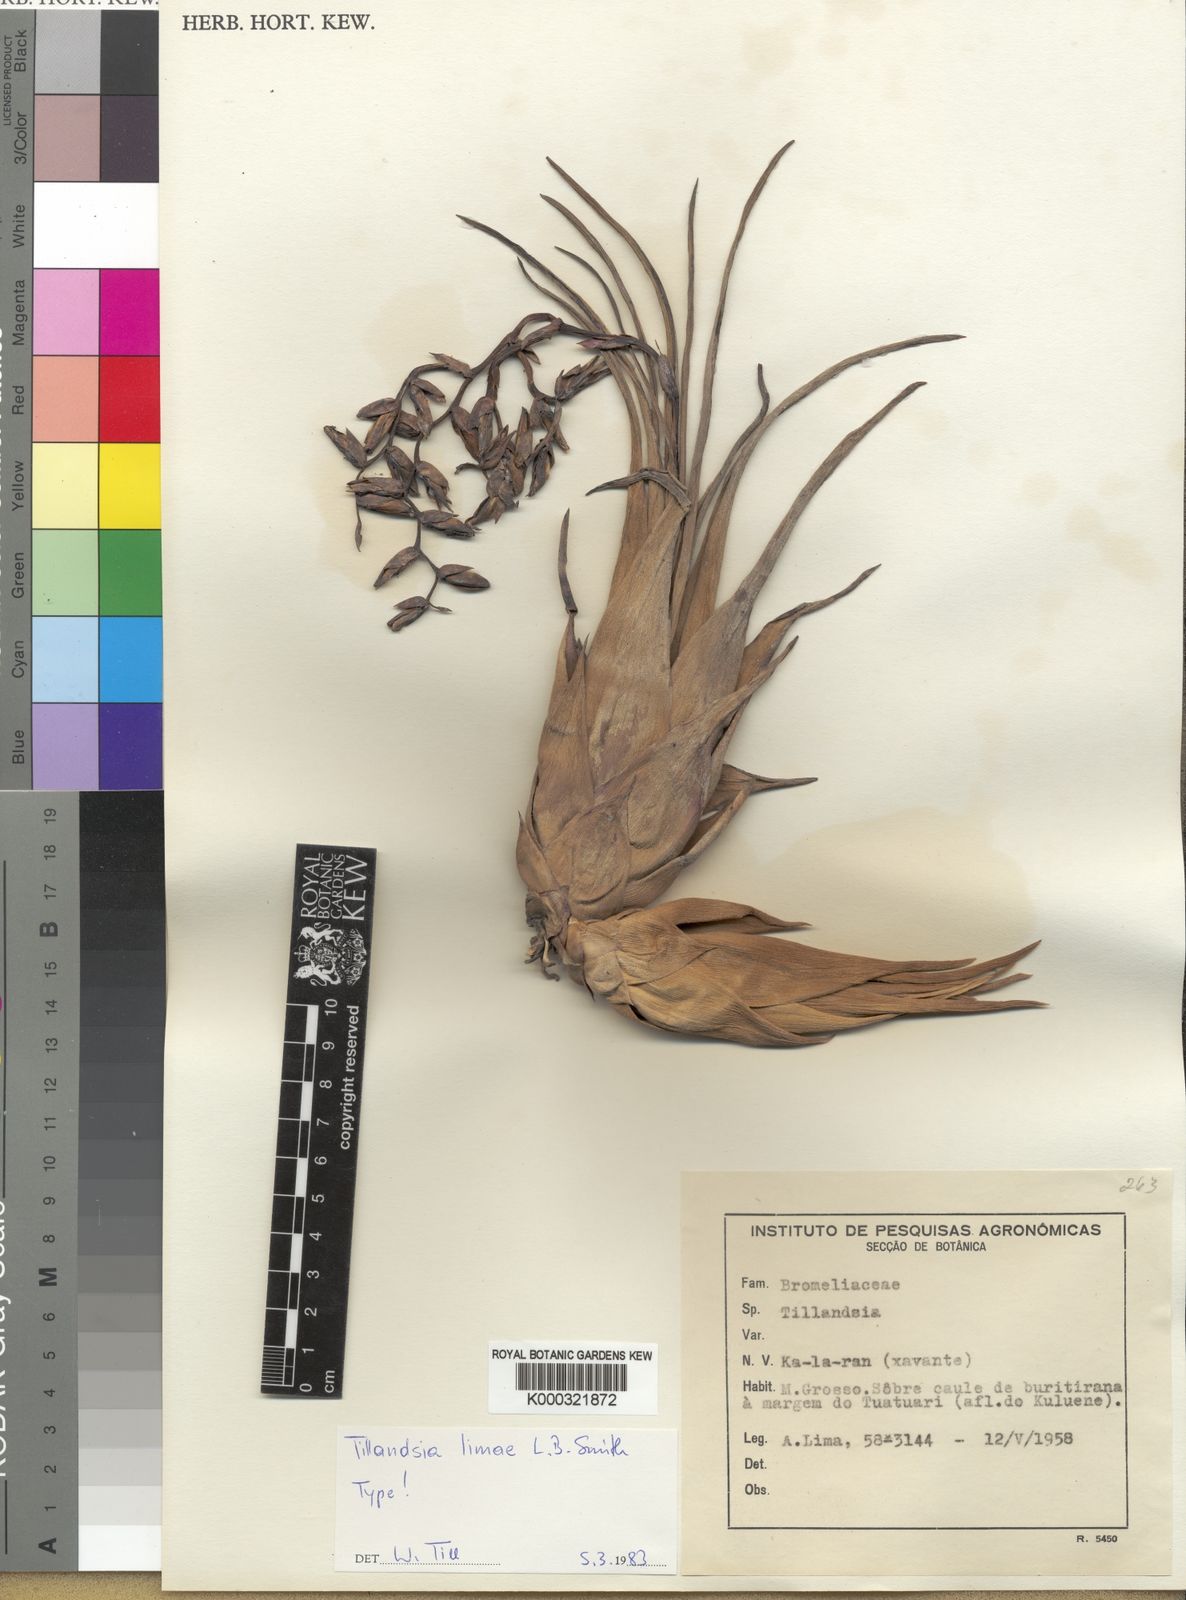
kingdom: Plantae
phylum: Tracheophyta
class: Liliopsida
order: Poales
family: Bromeliaceae
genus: Tillandsia
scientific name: Tillandsia limae
